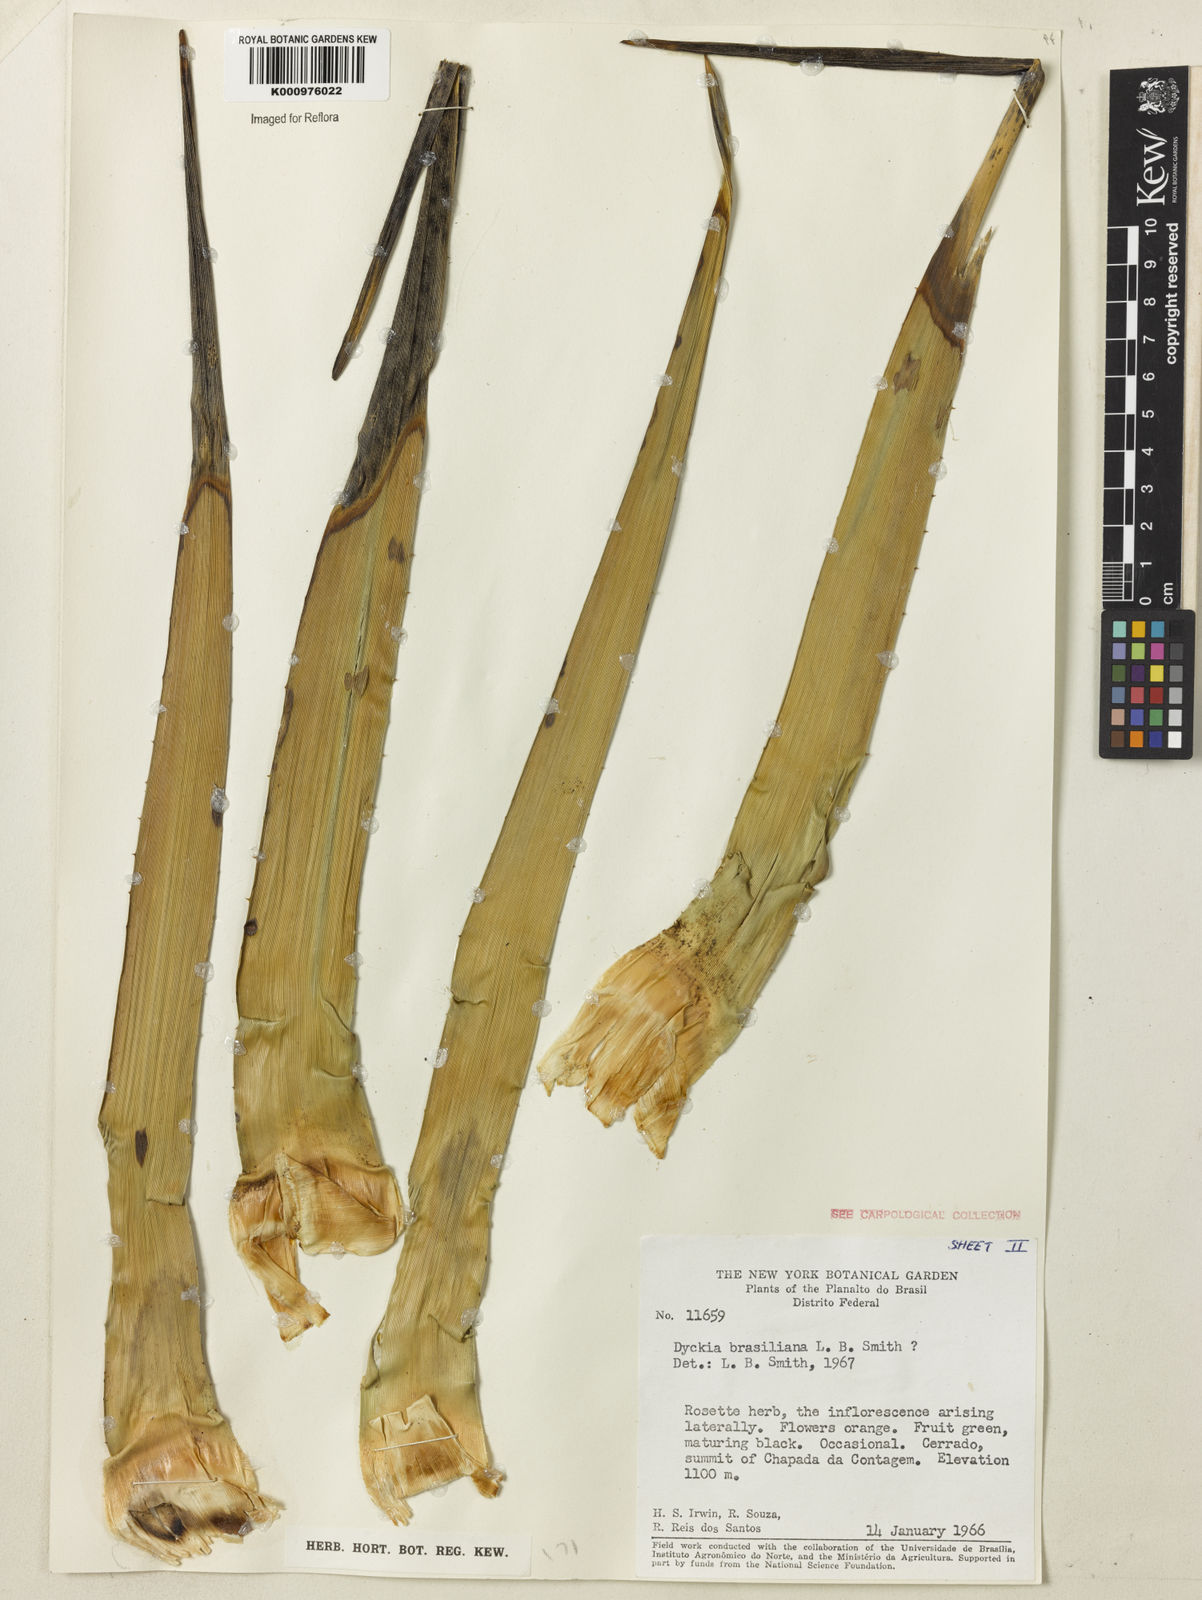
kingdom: Plantae
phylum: Tracheophyta
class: Liliopsida
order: Poales
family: Bromeliaceae
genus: Dyckia
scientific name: Dyckia brasiliana
